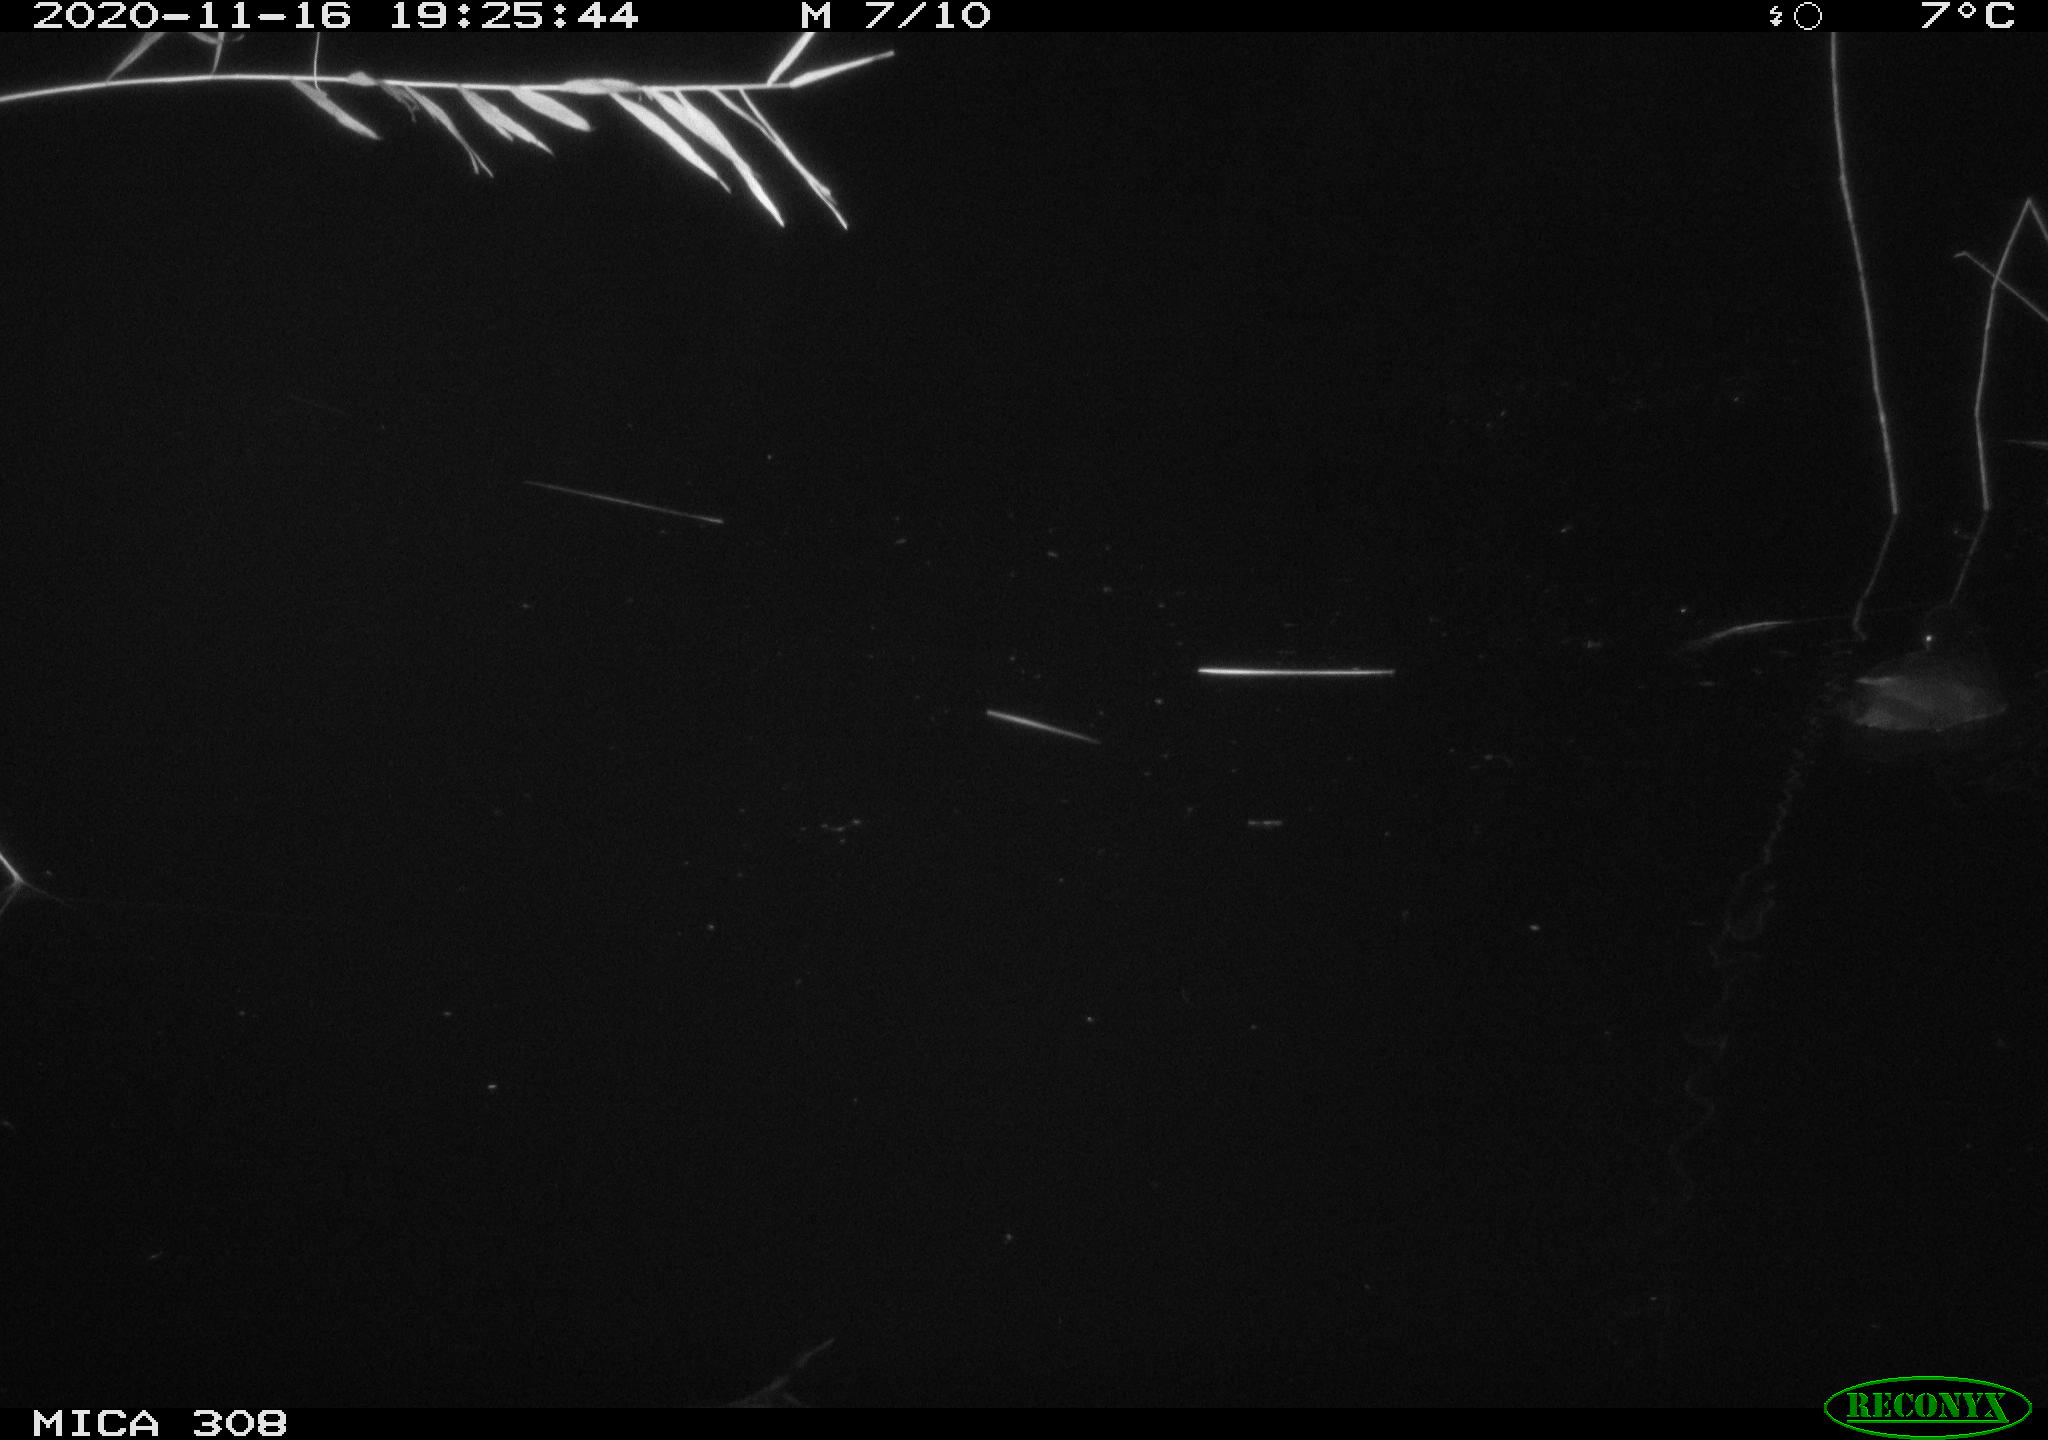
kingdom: Animalia
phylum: Chordata
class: Aves
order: Gruiformes
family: Rallidae
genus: Fulica
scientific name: Fulica atra
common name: Eurasian coot
